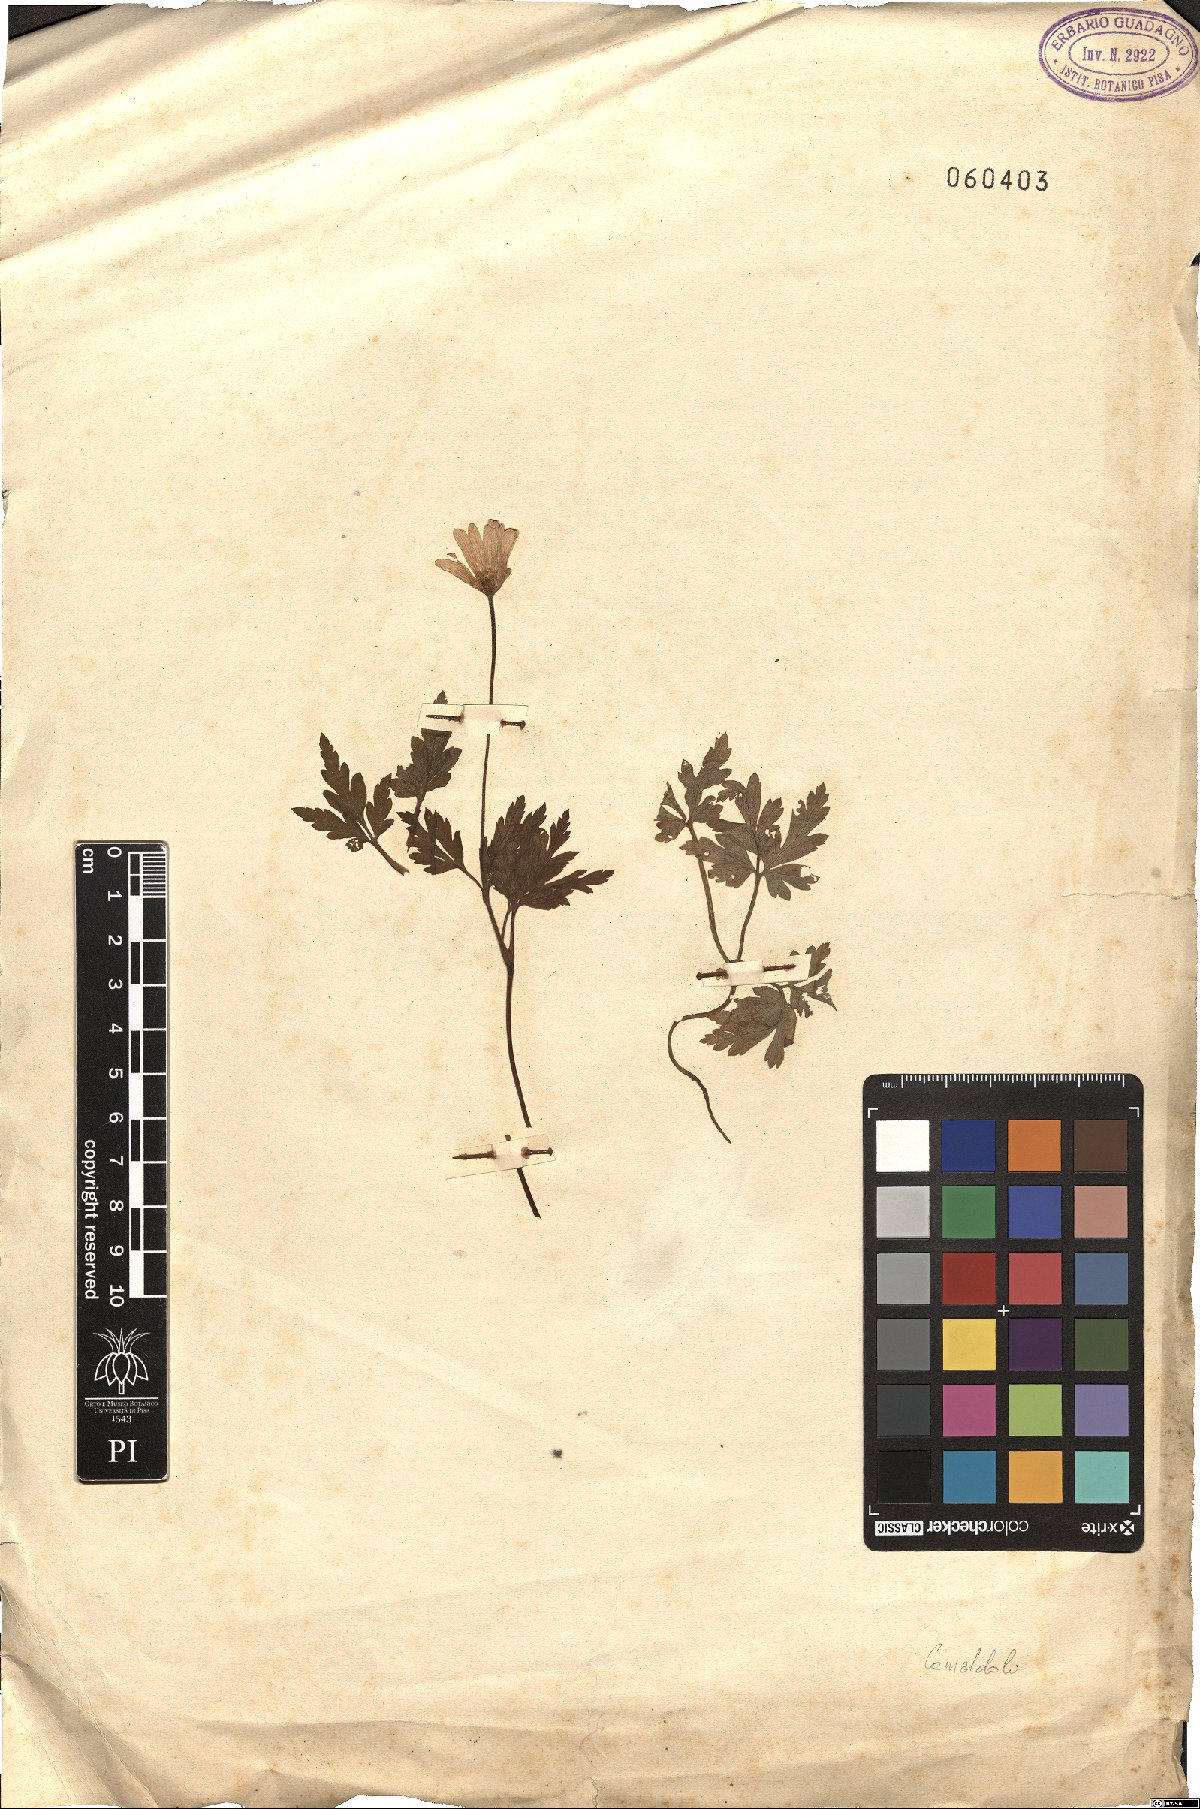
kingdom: Plantae
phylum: Tracheophyta
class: Magnoliopsida
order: Ranunculales
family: Ranunculaceae
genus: Anemone
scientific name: Anemone apennina
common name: Blue anemone
